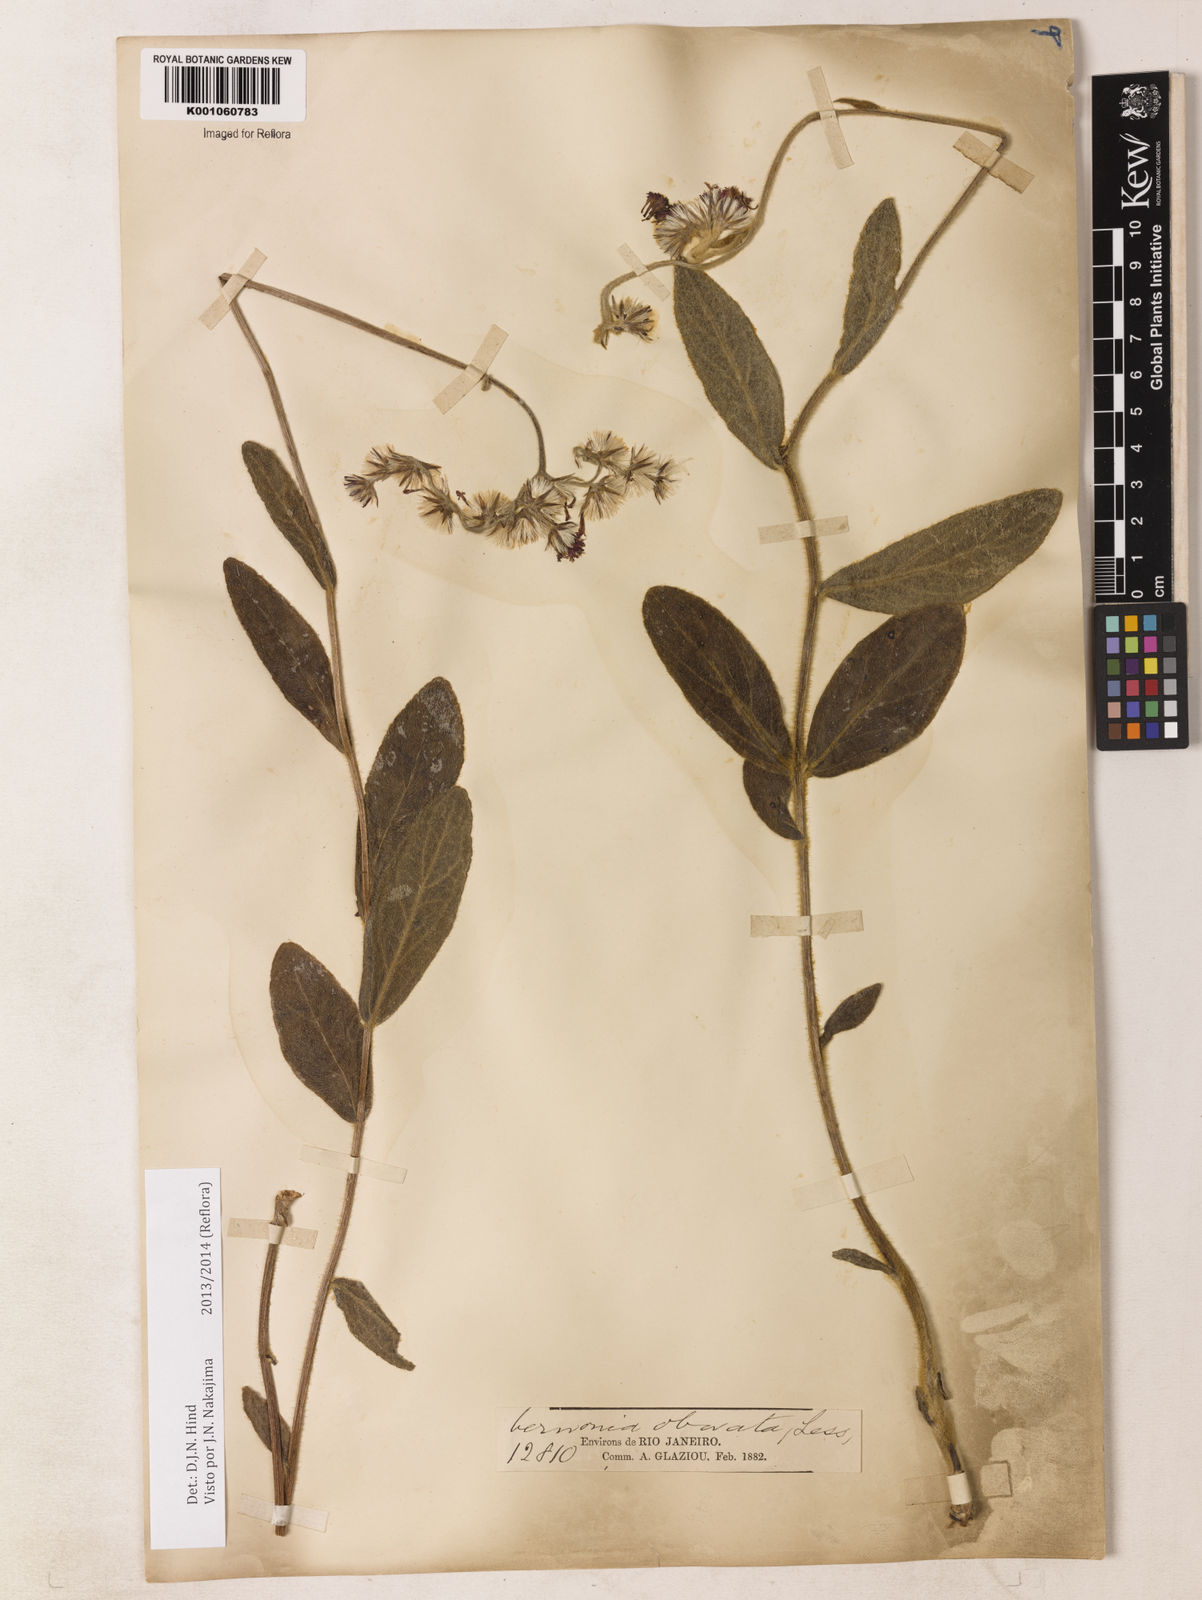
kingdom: Plantae
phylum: Tracheophyta
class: Magnoliopsida
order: Asterales
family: Asteraceae
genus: Chrysolaena
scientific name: Chrysolaena obovata
